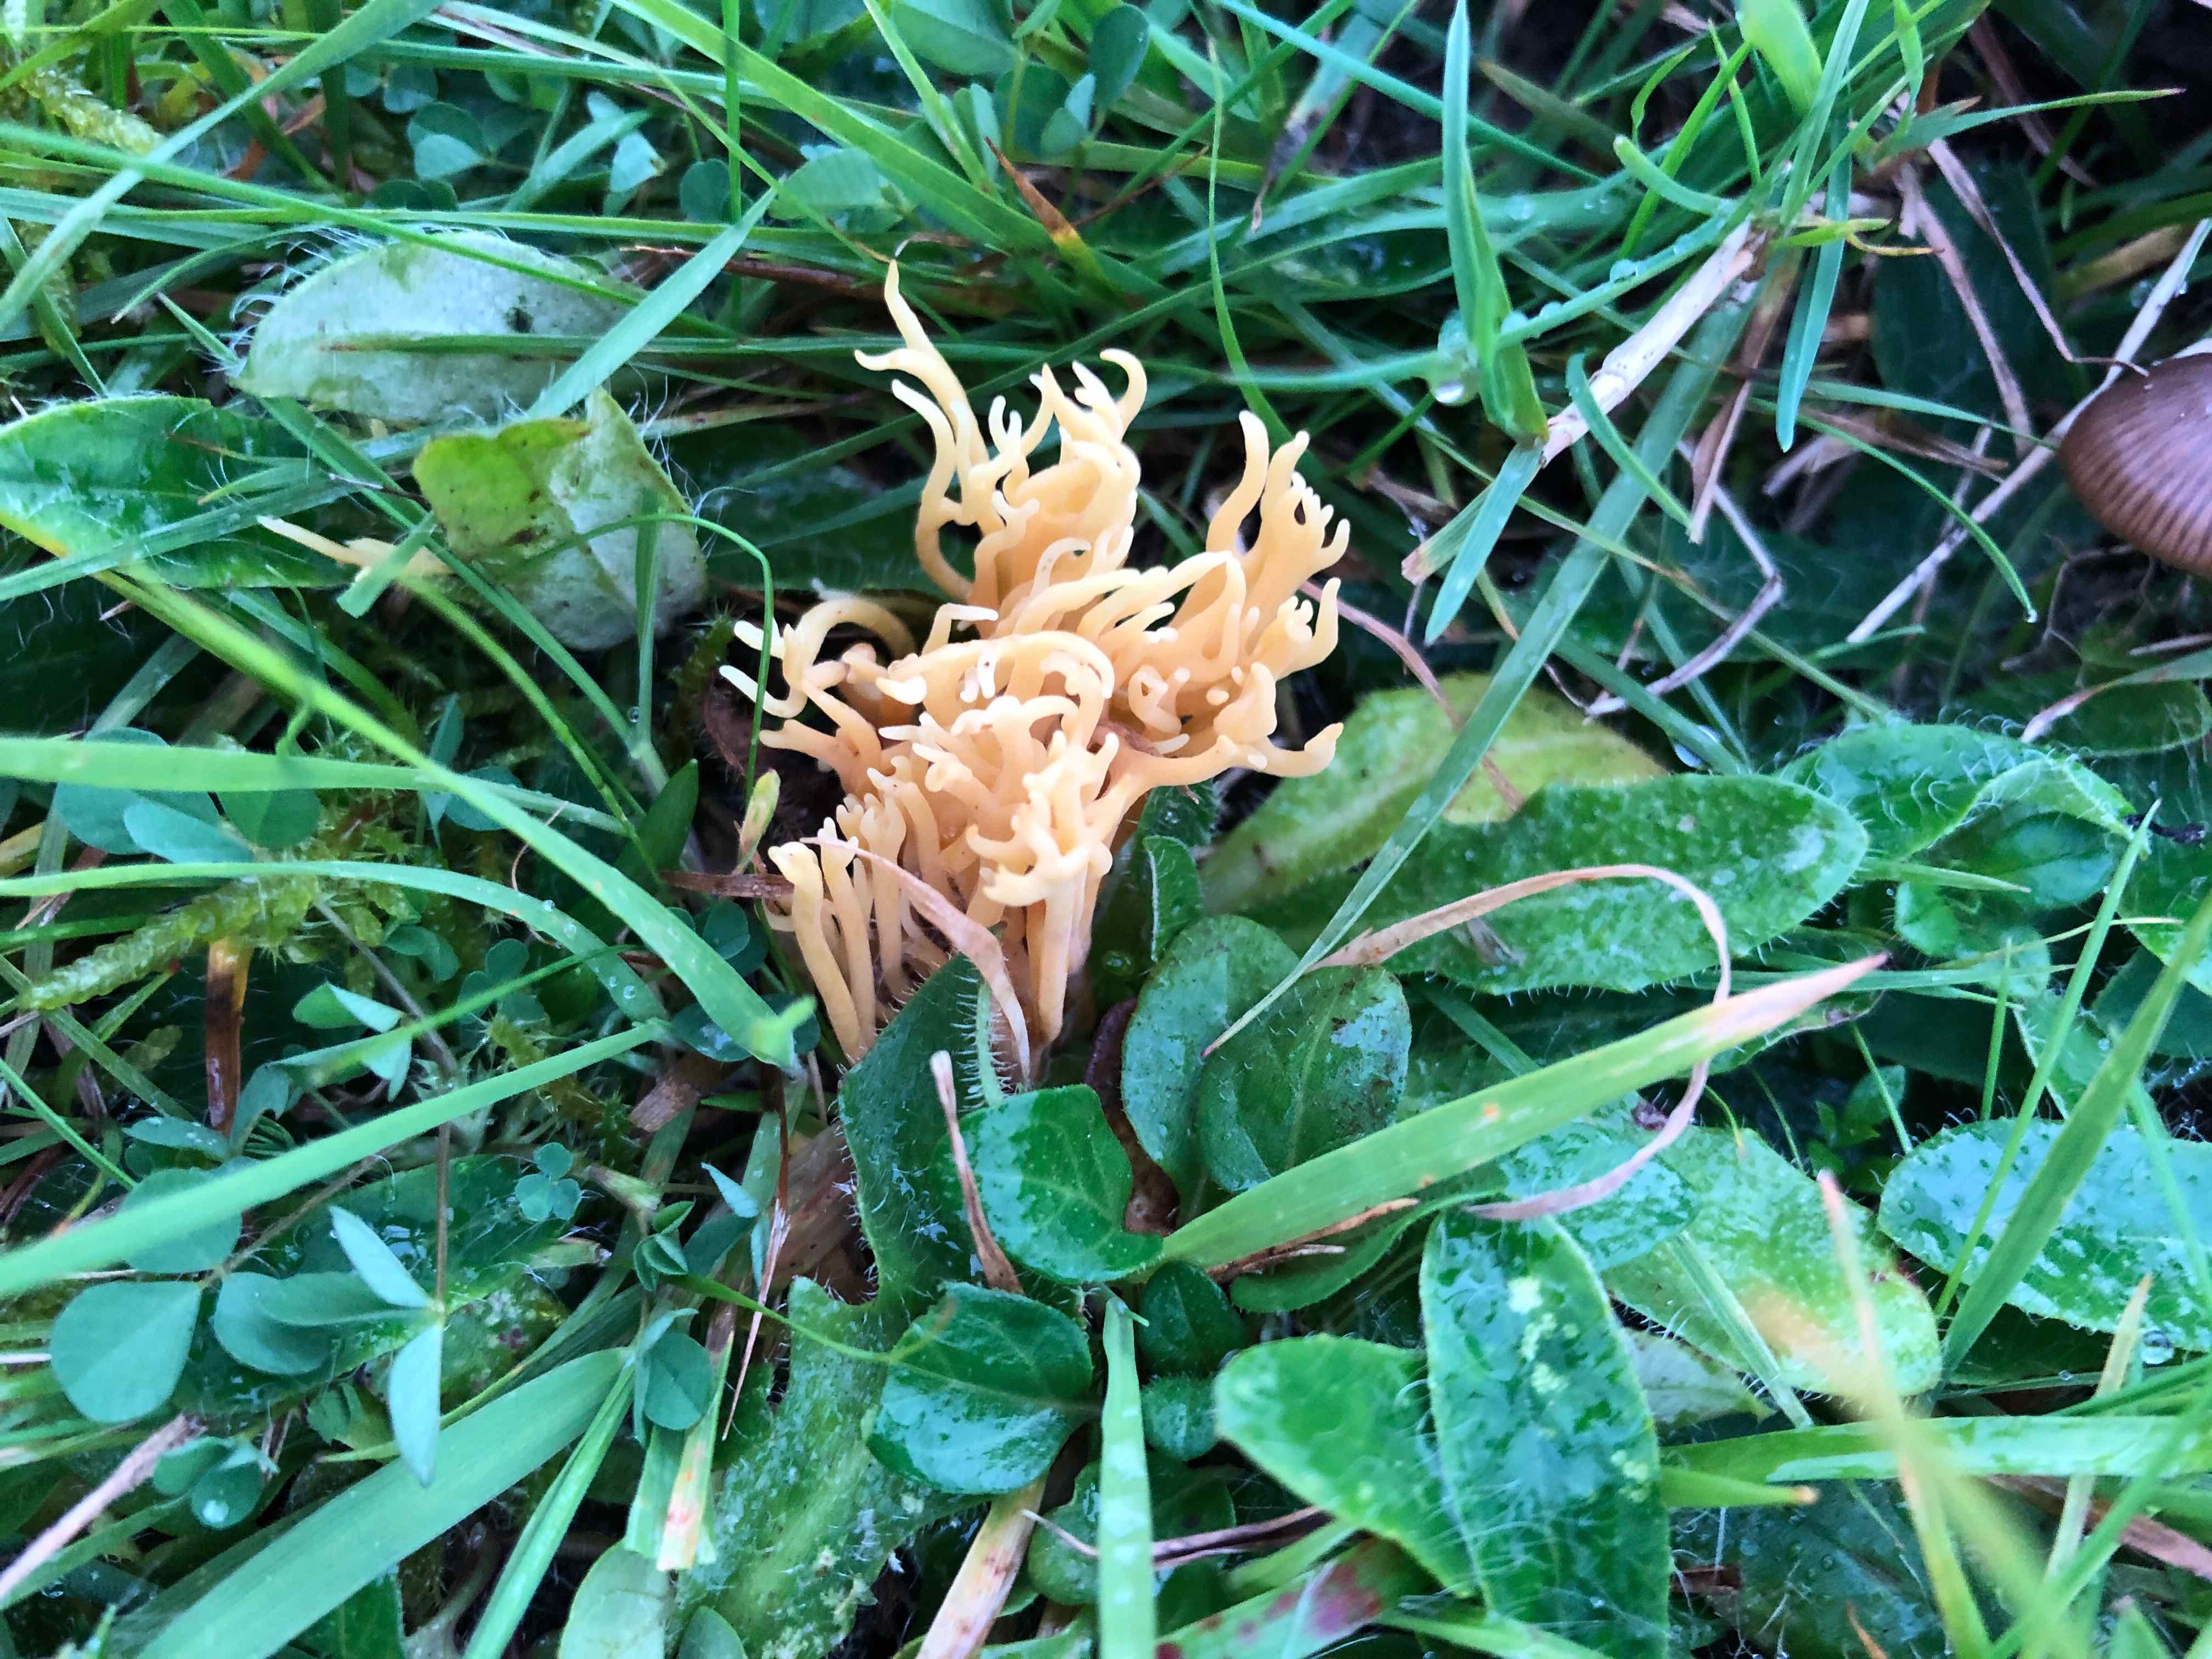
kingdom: Fungi
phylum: Basidiomycota
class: Agaricomycetes
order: Agaricales
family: Clavariaceae
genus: Clavulinopsis
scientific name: Clavulinopsis corniculata
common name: eng-køllesvamp
